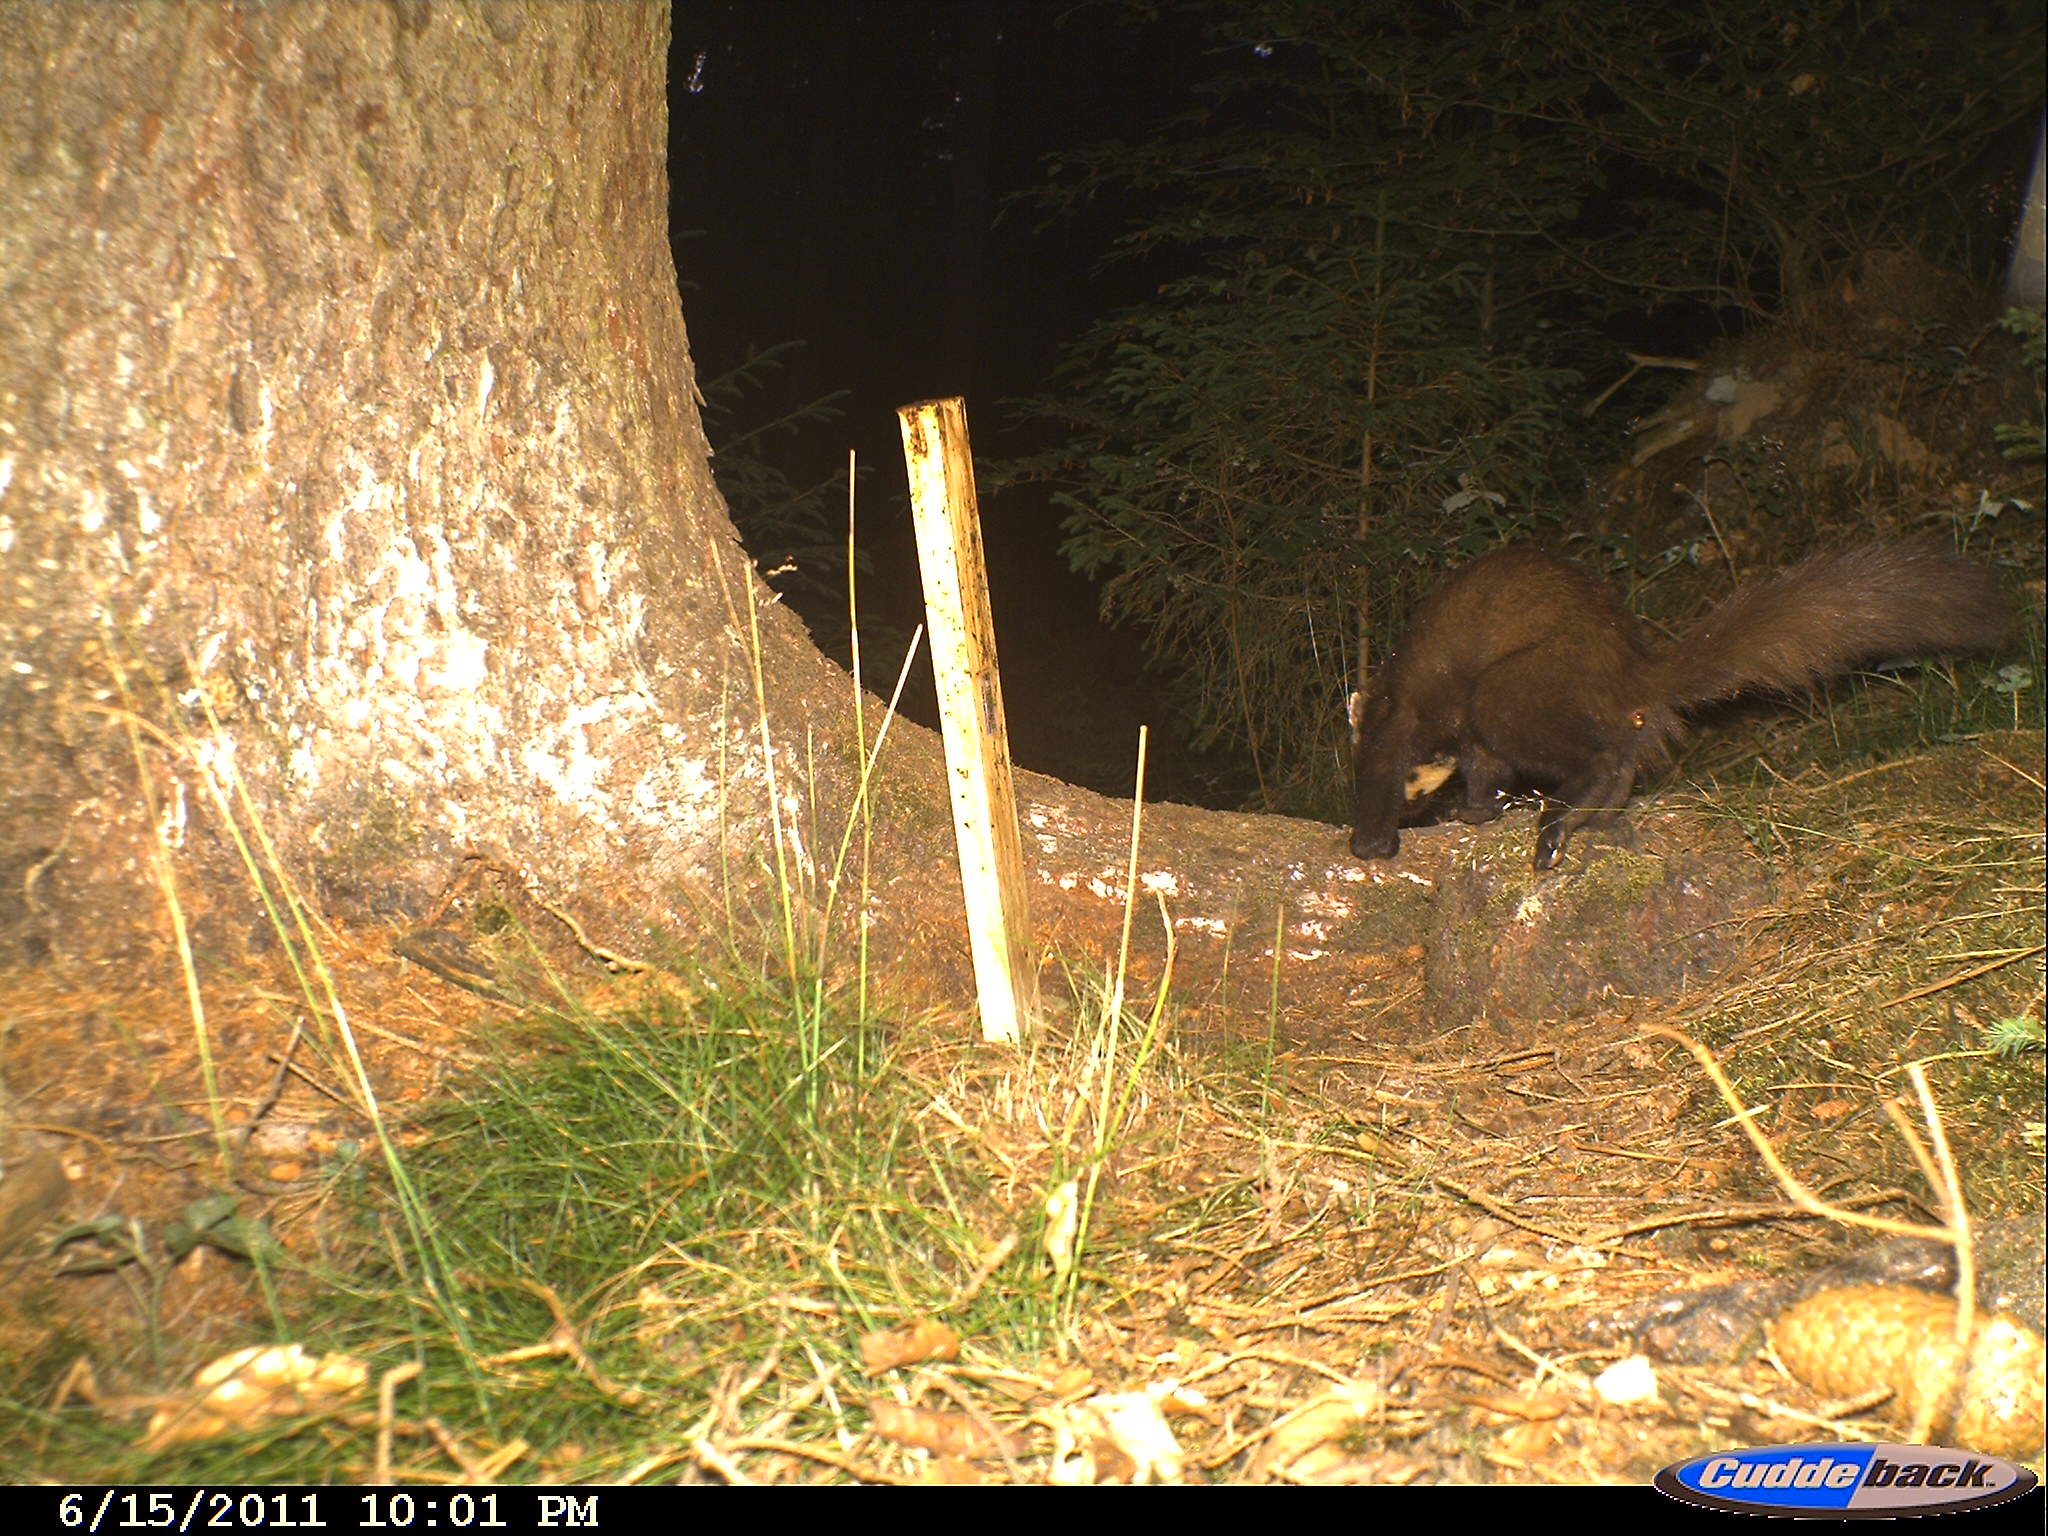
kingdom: Animalia
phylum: Chordata
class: Mammalia
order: Carnivora
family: Mustelidae
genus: Martes
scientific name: Martes martes
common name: European pine marten
